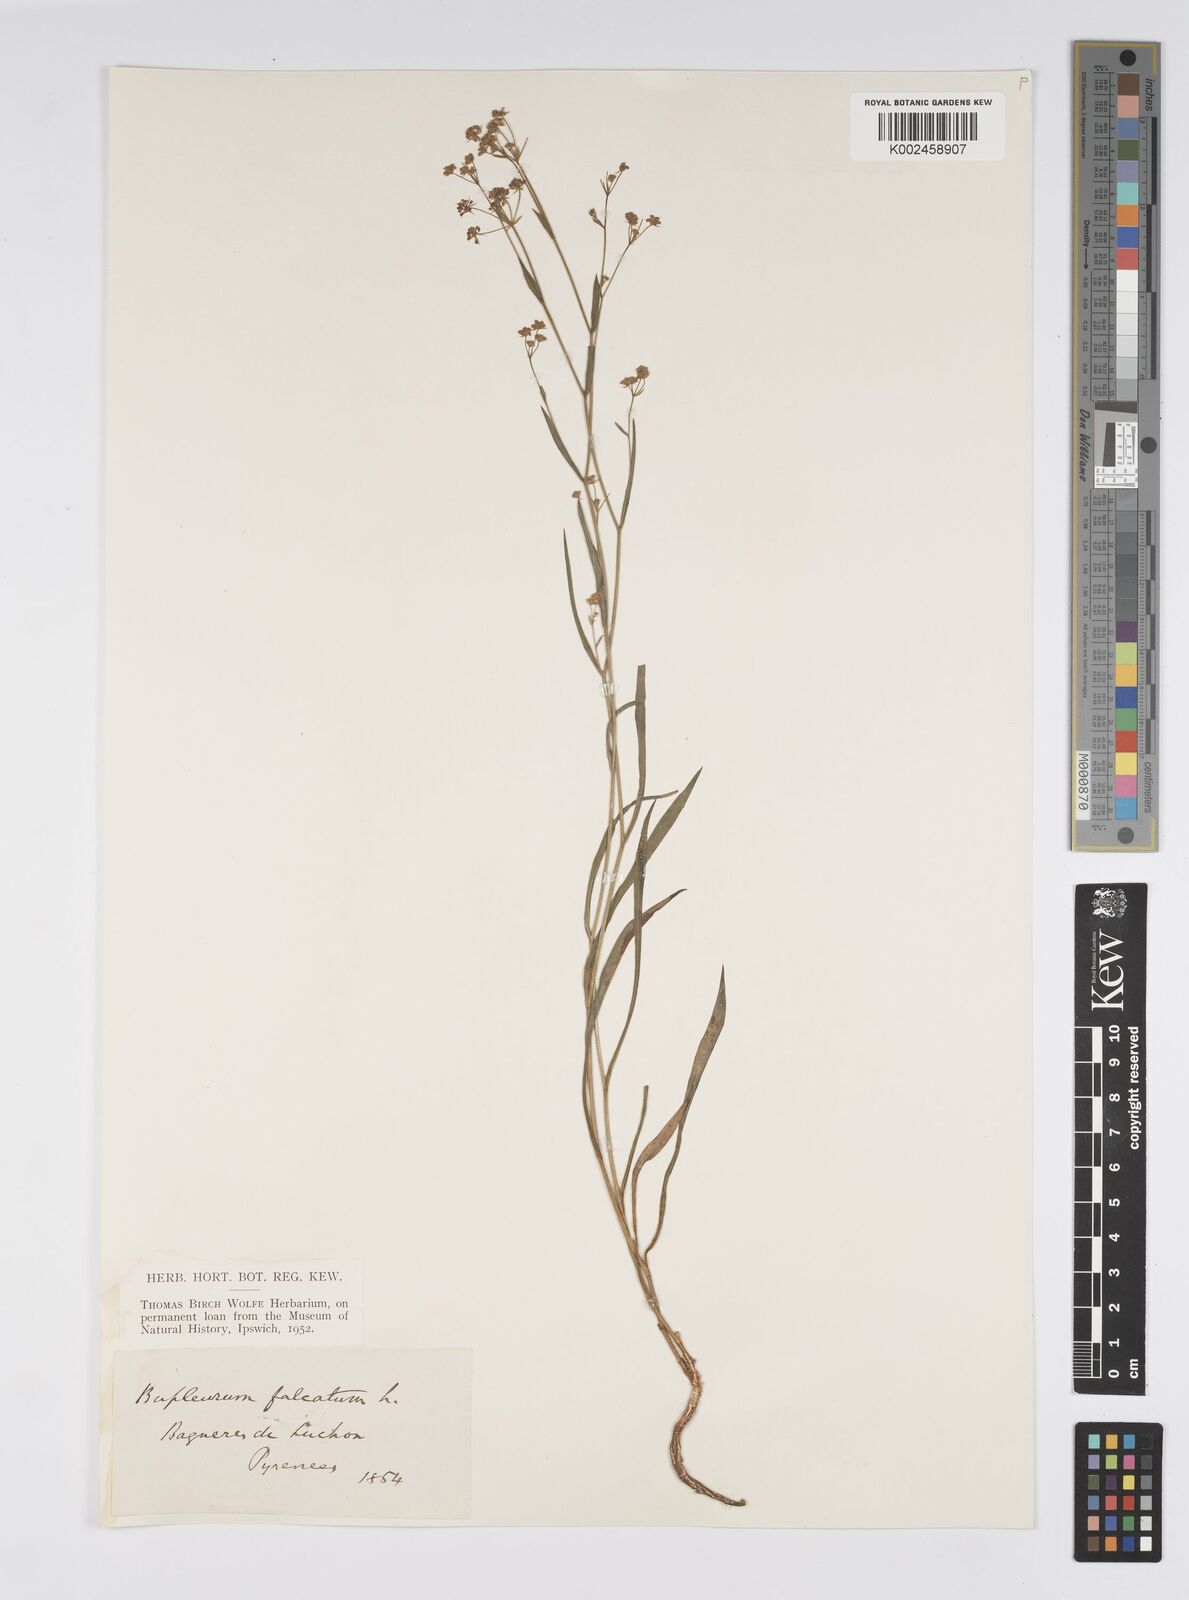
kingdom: Plantae
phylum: Tracheophyta
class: Magnoliopsida
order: Apiales
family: Apiaceae
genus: Bupleurum
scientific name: Bupleurum falcatum
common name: Sickle-leaved hare's-ear
